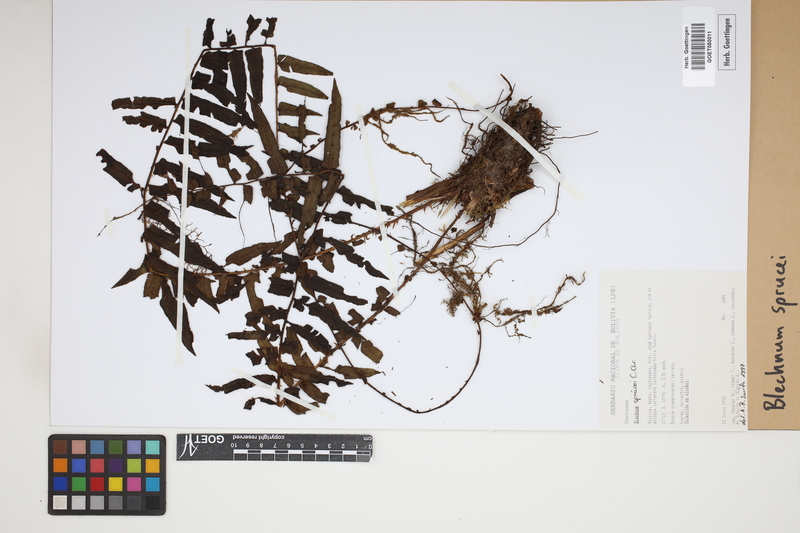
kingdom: Plantae
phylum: Tracheophyta
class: Polypodiopsida
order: Polypodiales
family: Blechnaceae
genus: Cranfillia
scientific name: Cranfillia caudata
